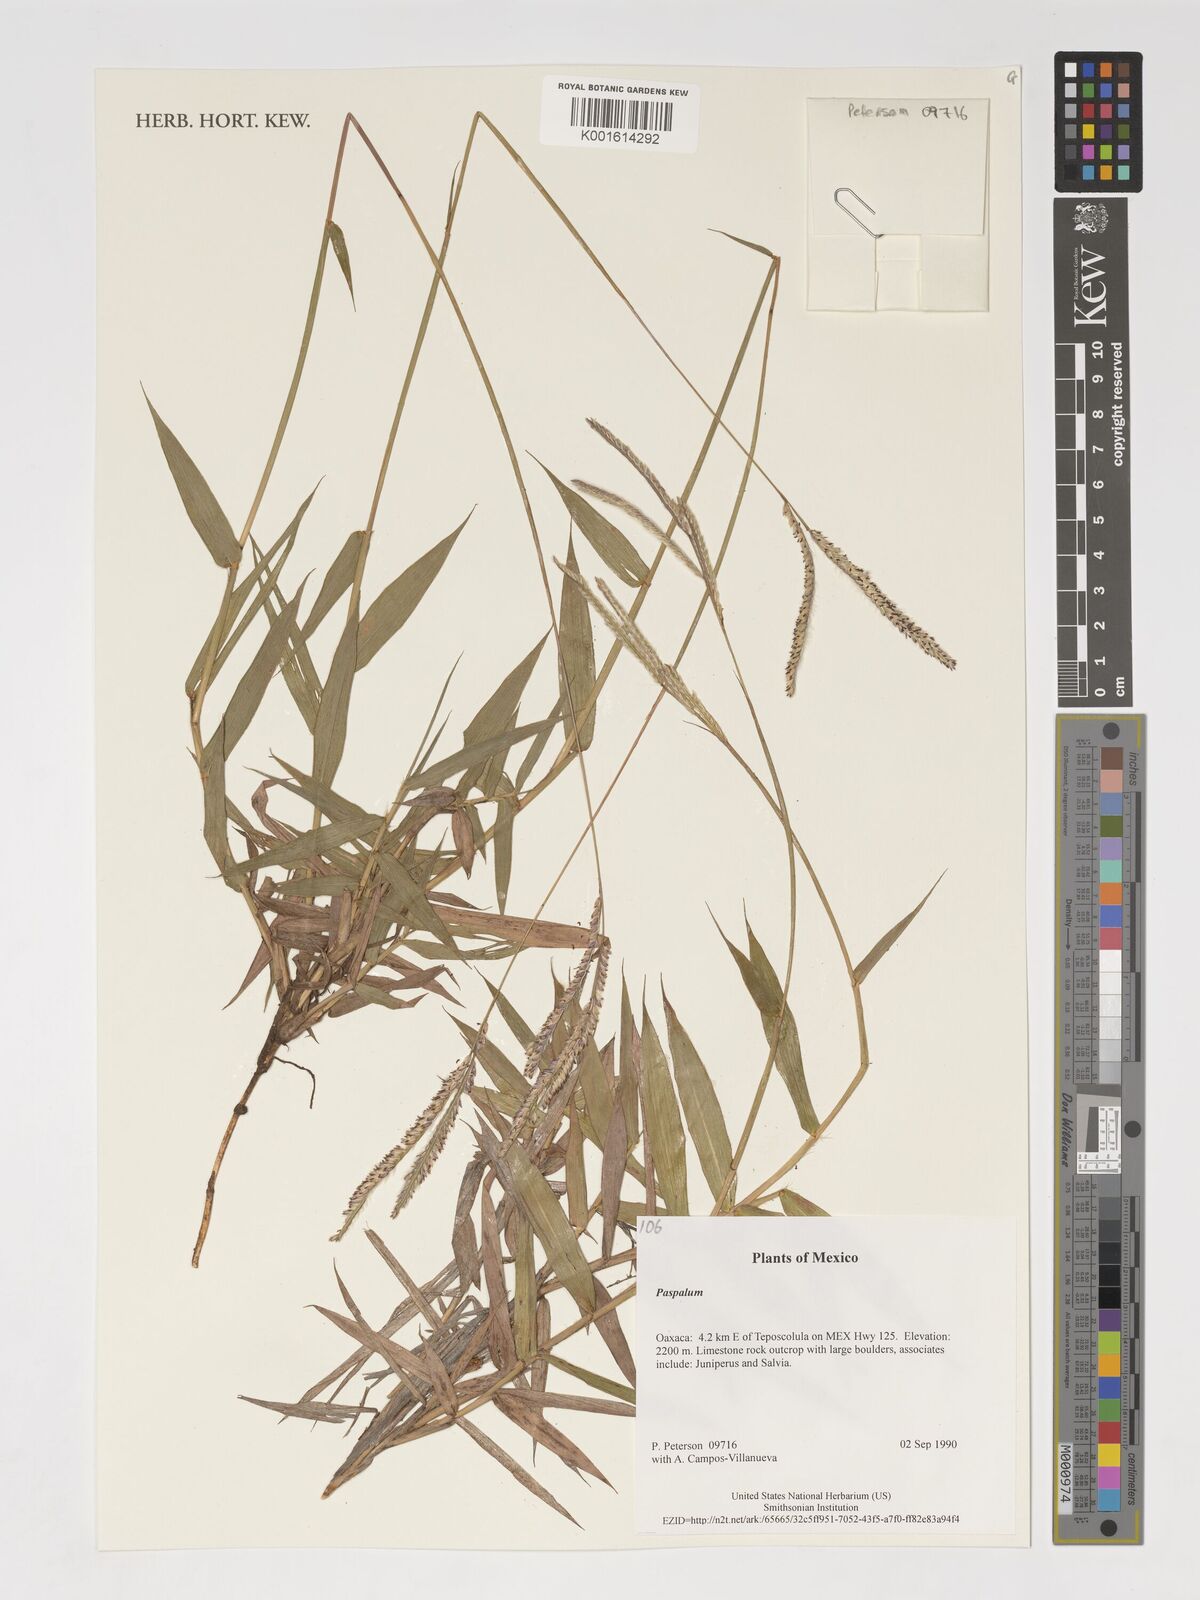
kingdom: Plantae
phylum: Tracheophyta
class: Liliopsida
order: Poales
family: Poaceae
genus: Paspalum
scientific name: Paspalum
